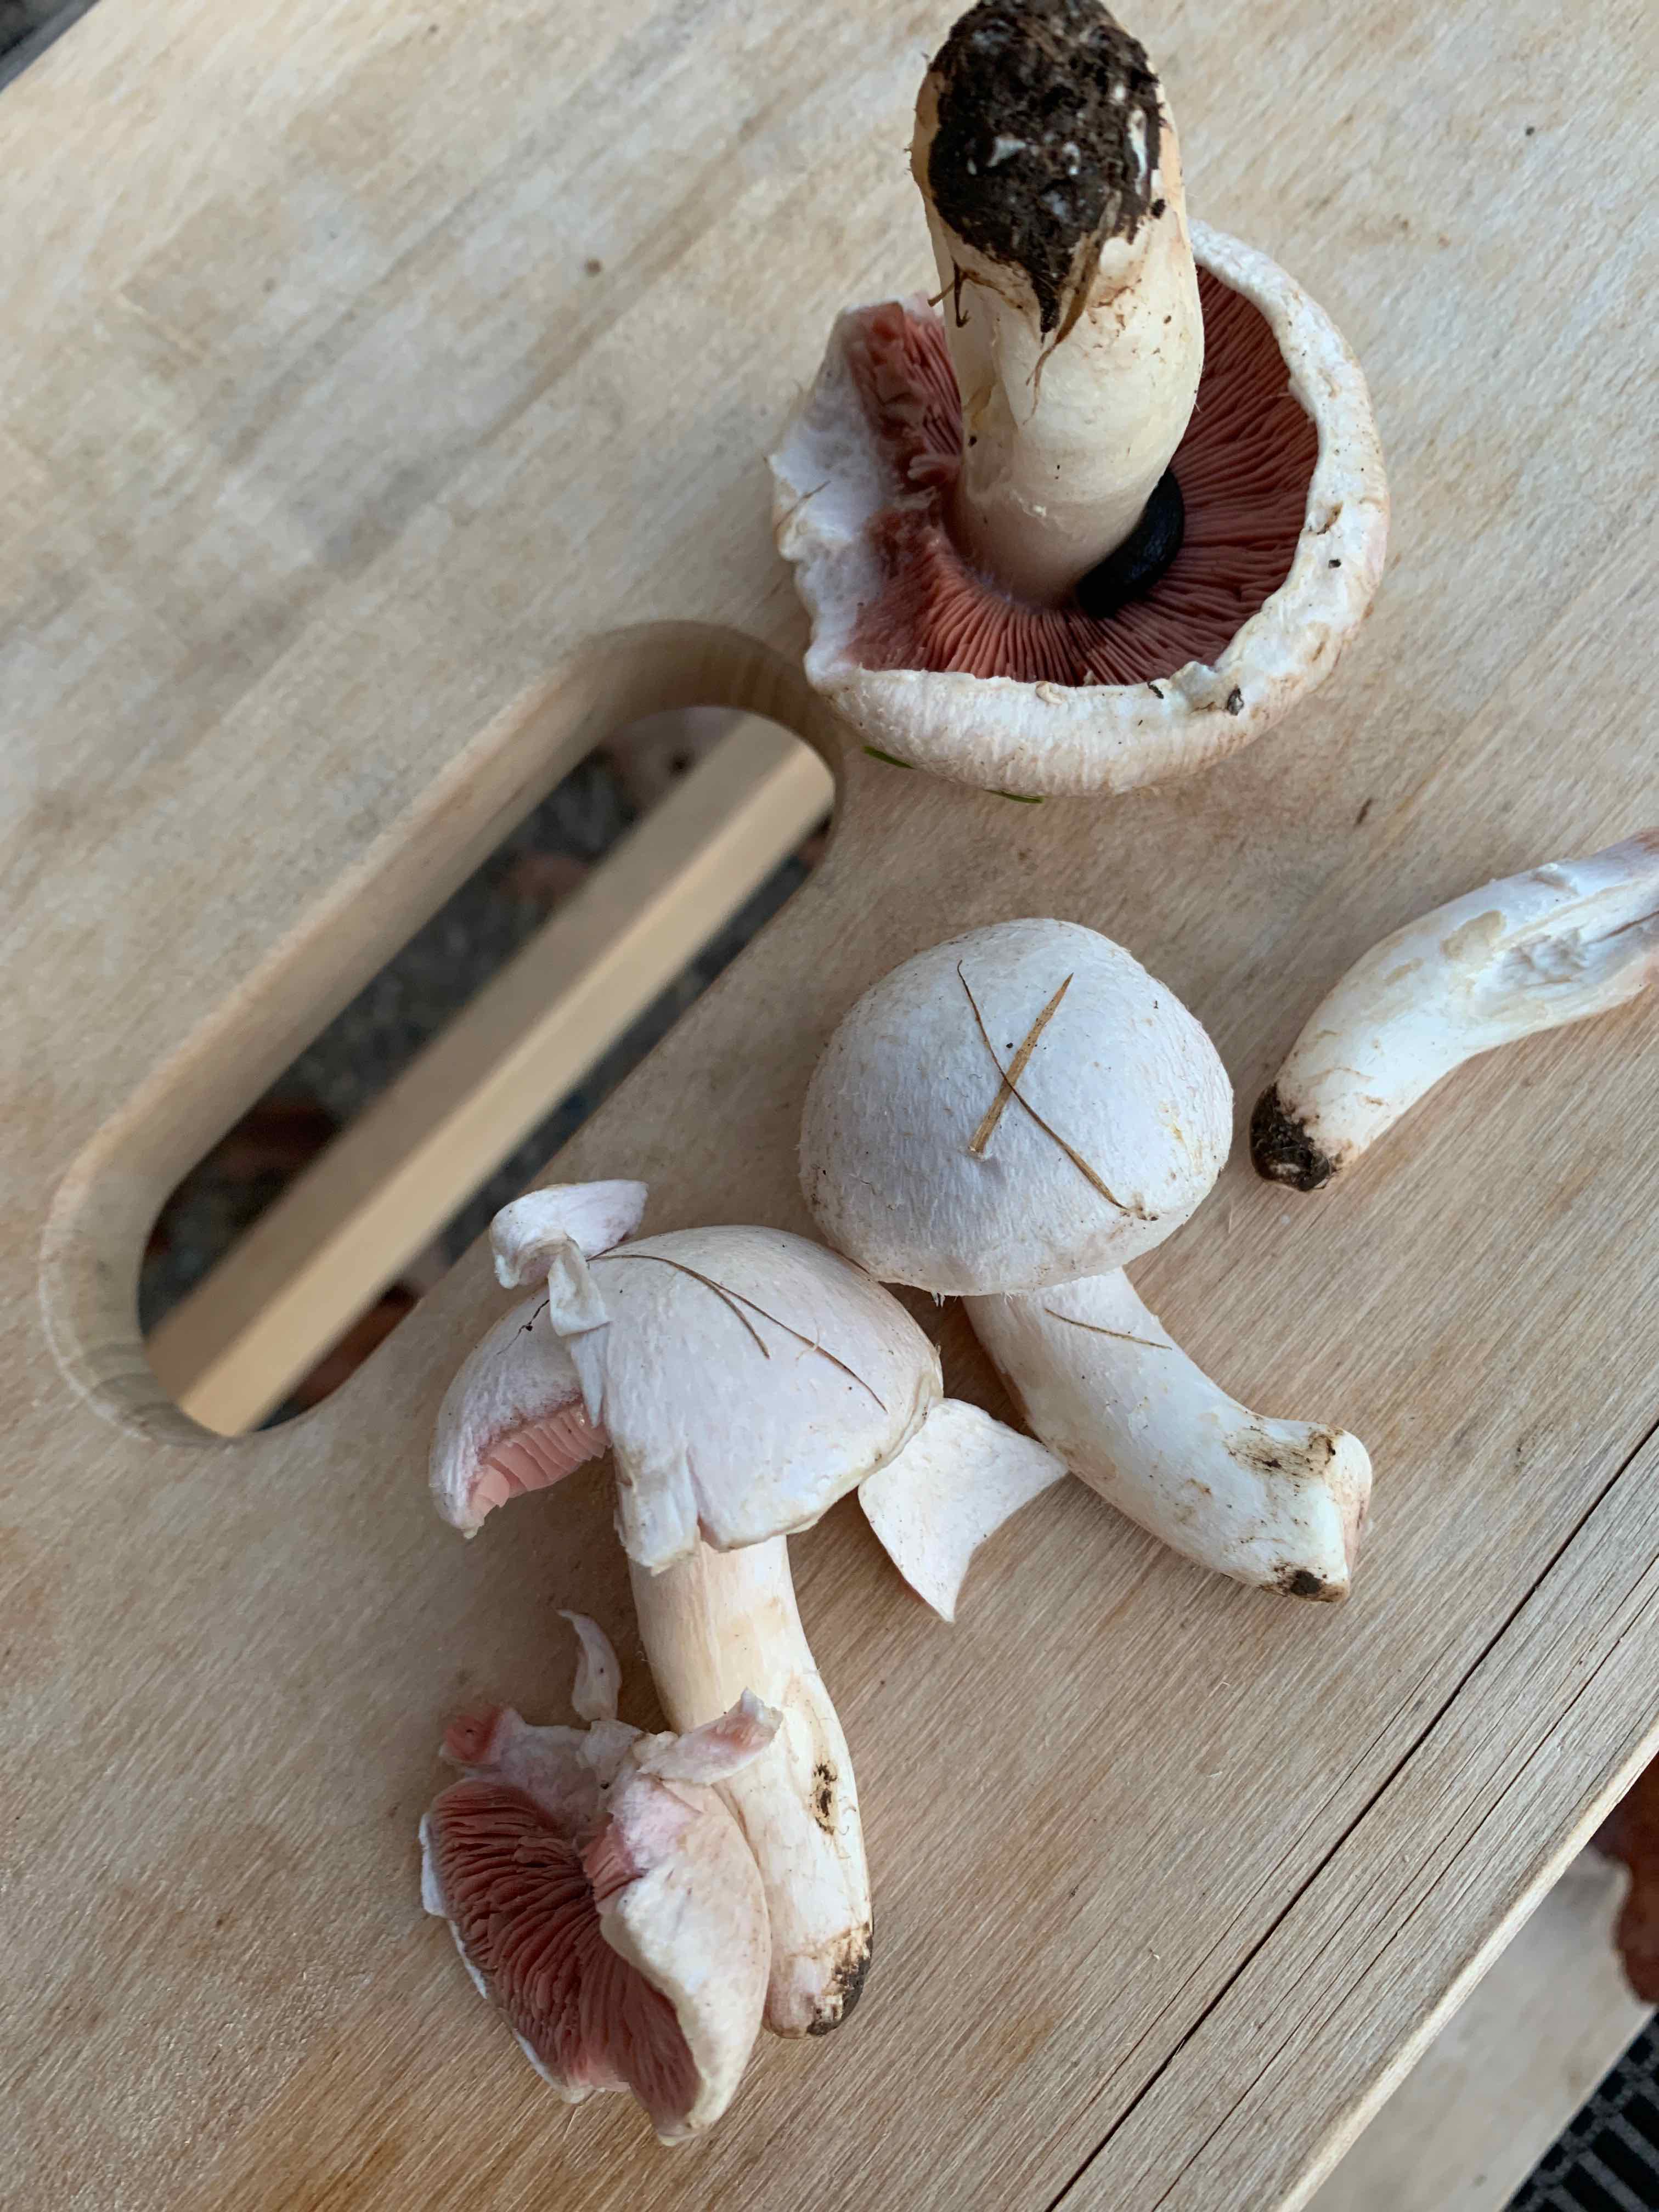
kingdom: Fungi
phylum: Basidiomycota
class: Agaricomycetes
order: Agaricales
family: Agaricaceae
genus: Agaricus
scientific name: Agaricus campestris
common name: mark-champignon
